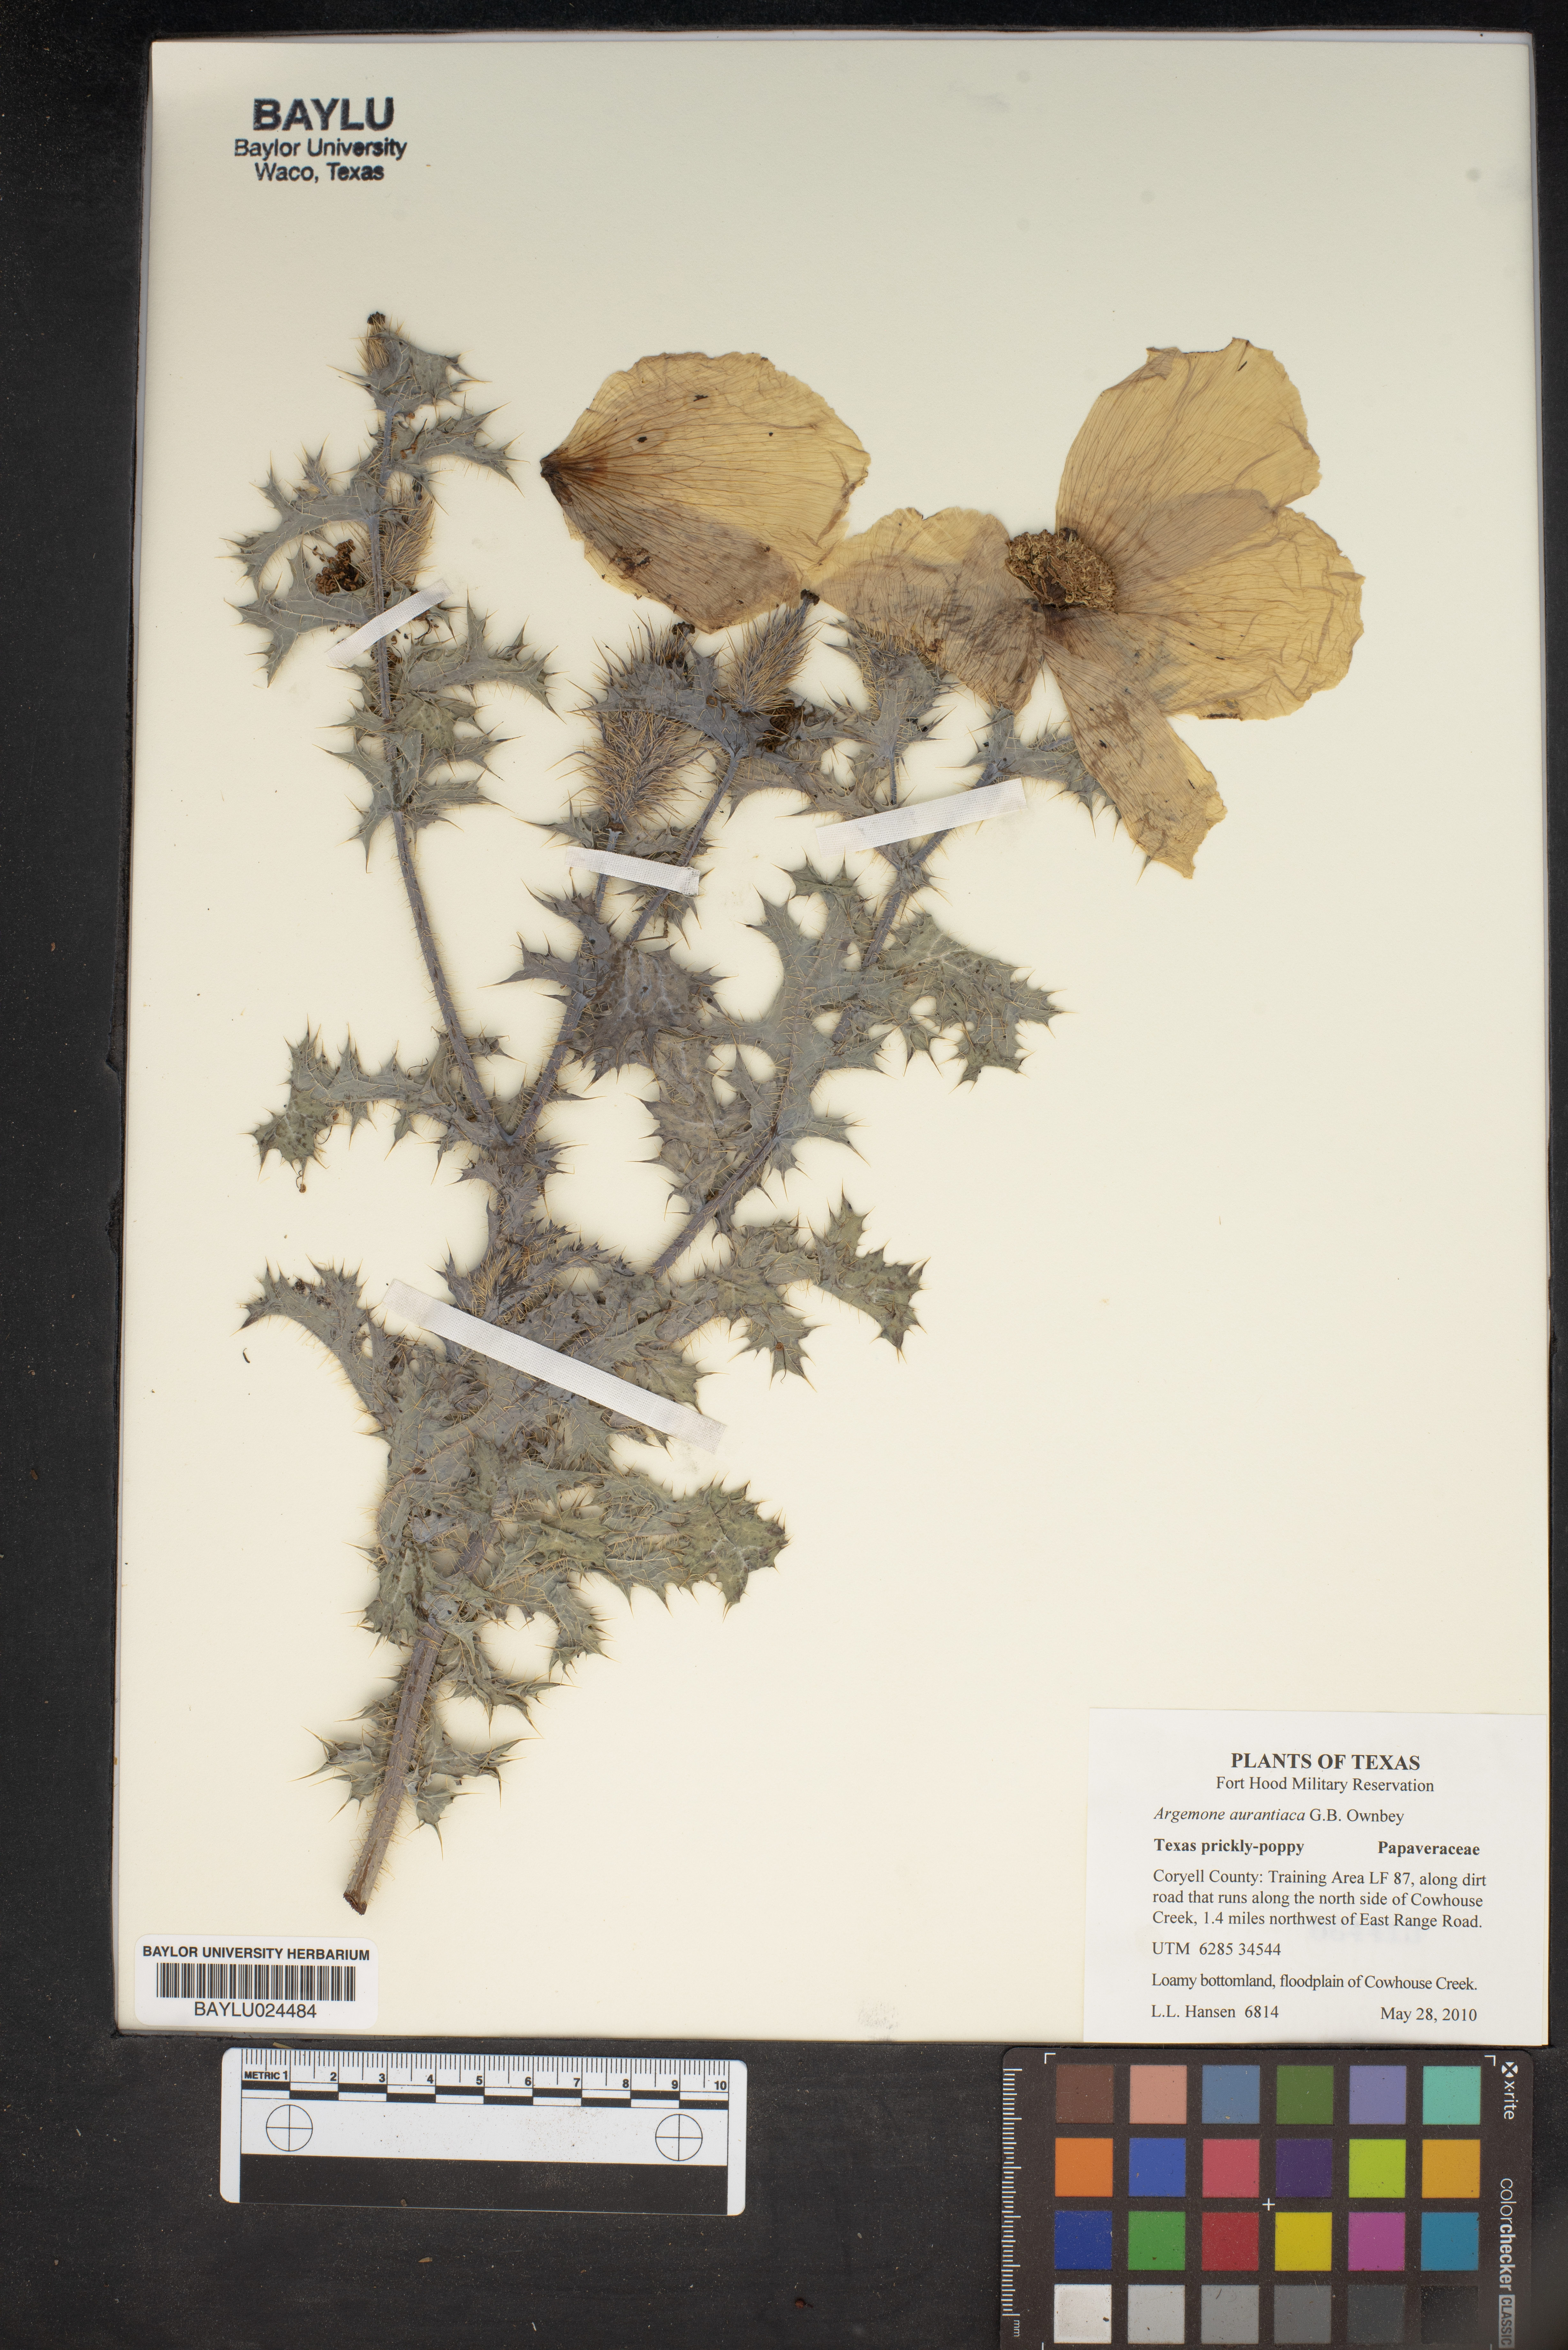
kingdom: Plantae
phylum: Tracheophyta
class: Magnoliopsida
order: Ranunculales
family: Papaveraceae
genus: Argemone
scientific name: Argemone aurantiaca
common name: Texas prickly-poppy
